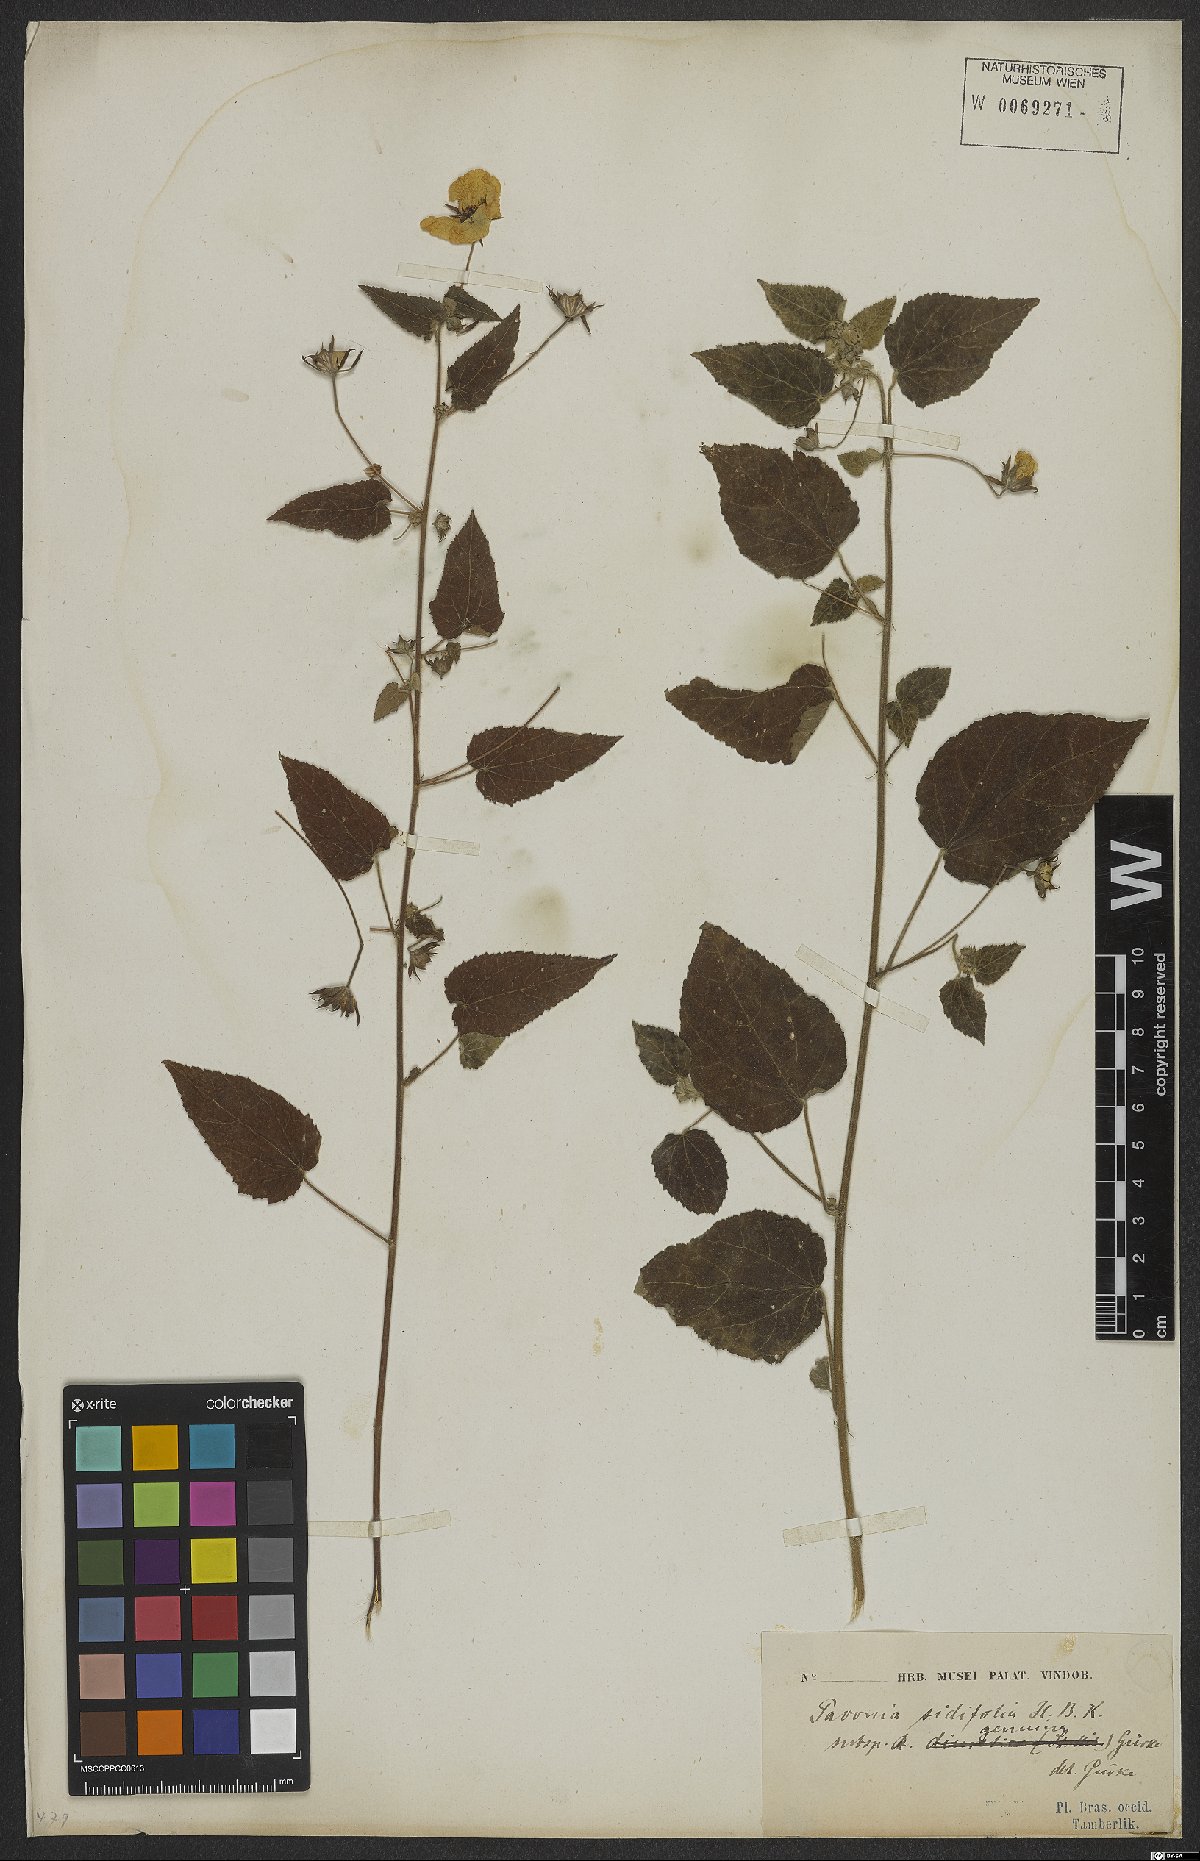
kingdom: Plantae
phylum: Tracheophyta
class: Magnoliopsida
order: Malvales
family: Malvaceae
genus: Pavonia
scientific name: Pavonia sidifolia
